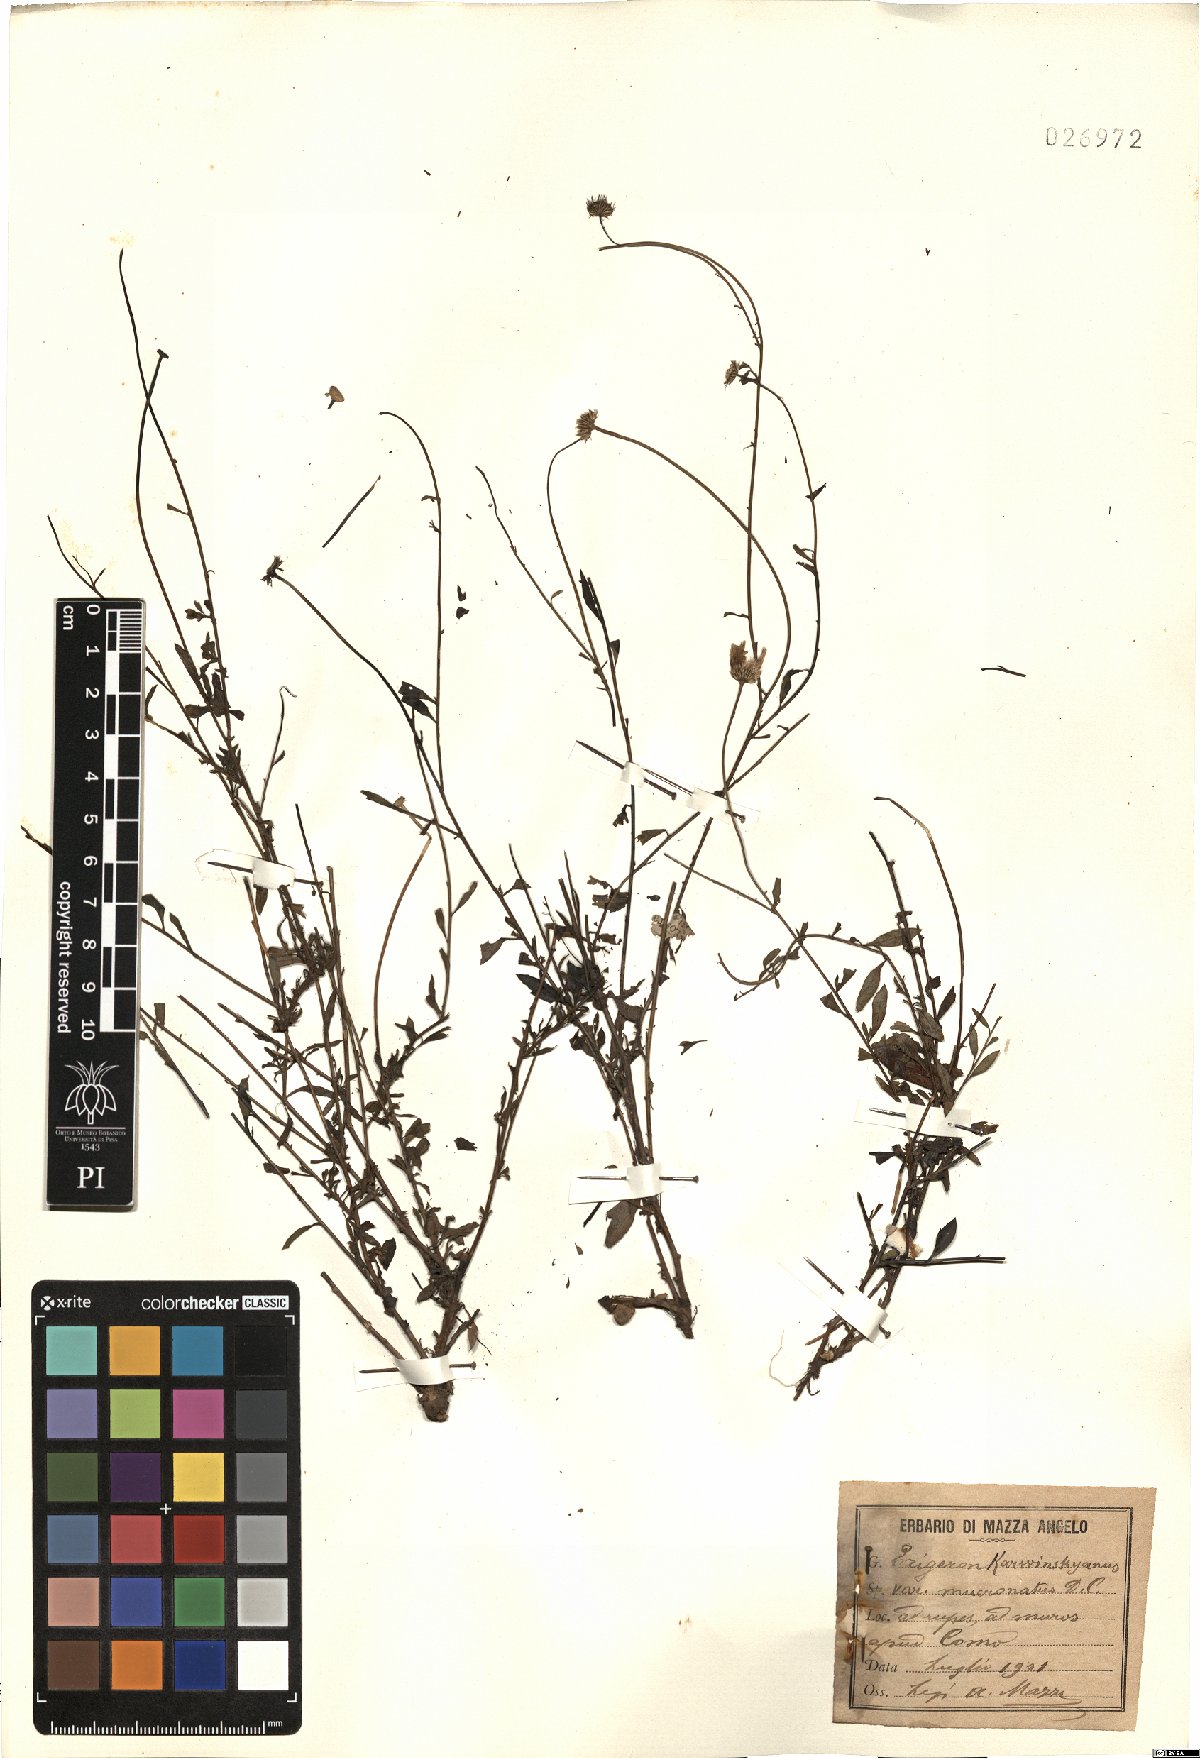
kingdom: Plantae
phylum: Tracheophyta
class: Magnoliopsida
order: Asterales
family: Asteraceae
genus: Erigeron
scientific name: Erigeron karvinskianus
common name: Mexican fleabane
